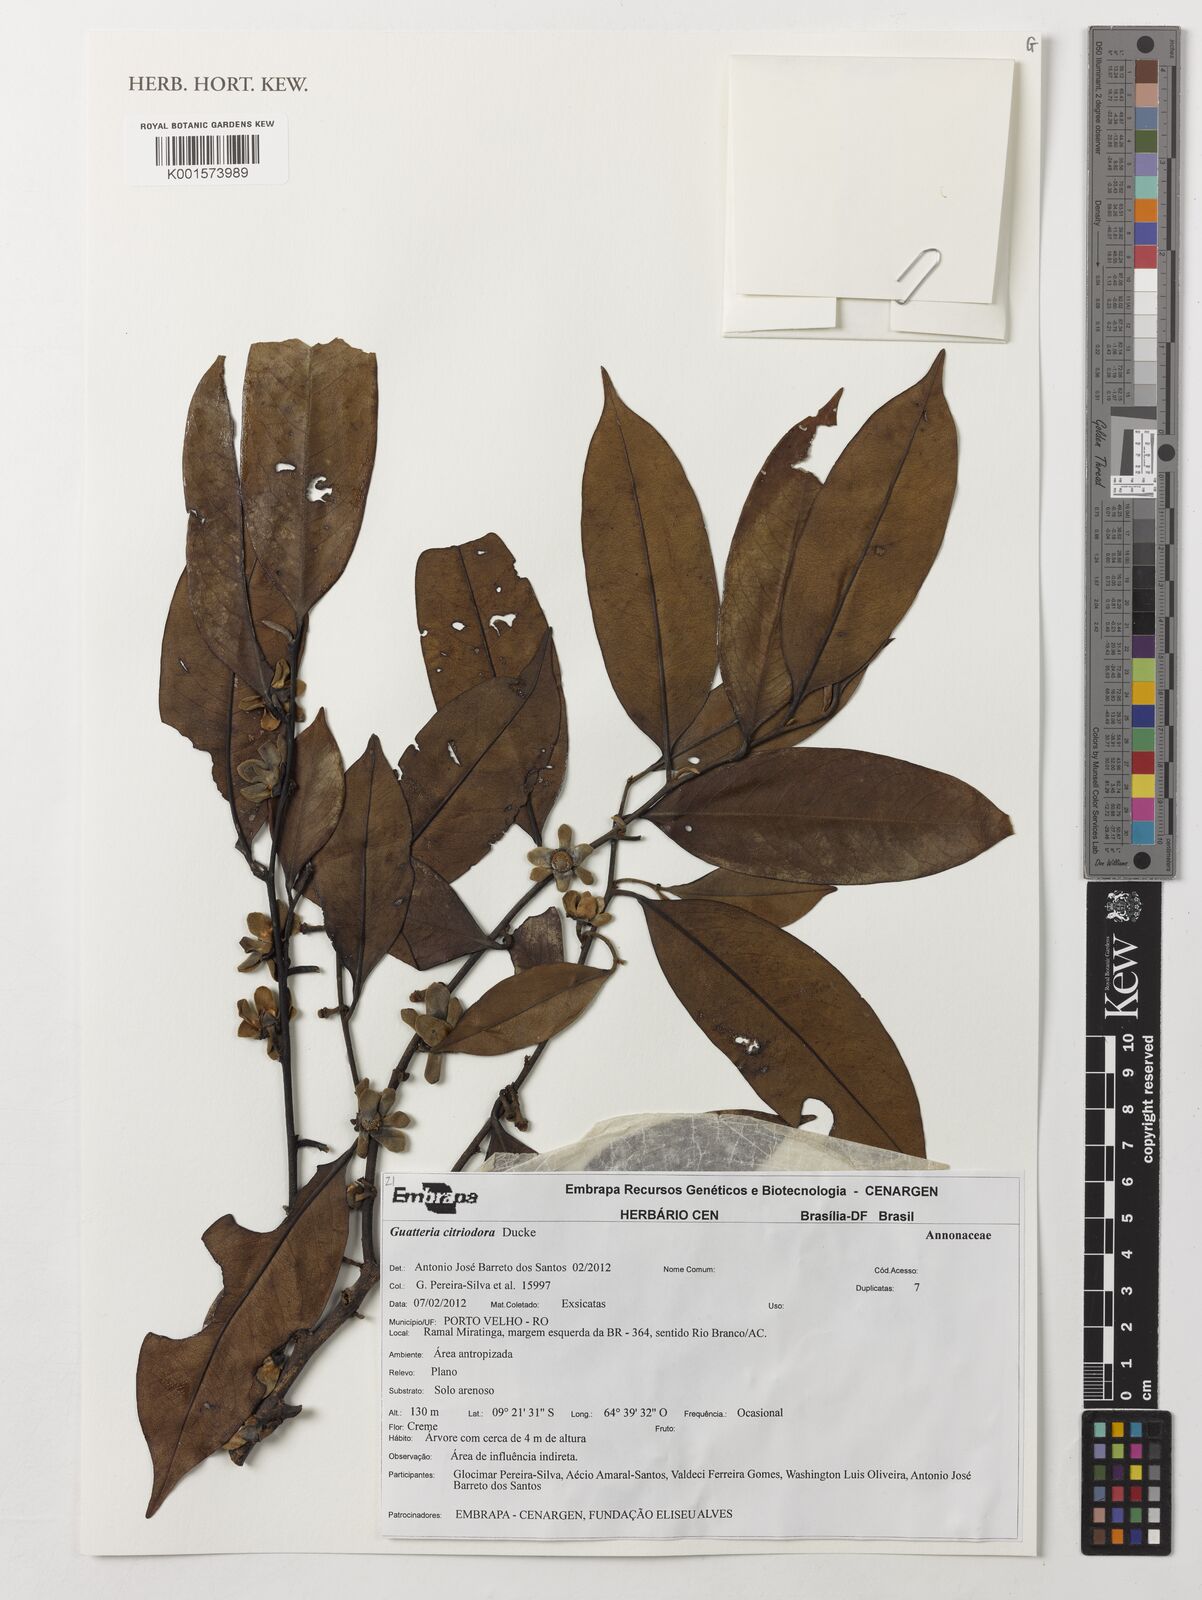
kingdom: Plantae
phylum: Tracheophyta
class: Magnoliopsida
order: Magnoliales
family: Annonaceae
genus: Guatteria
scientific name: Guatteria citriodora
